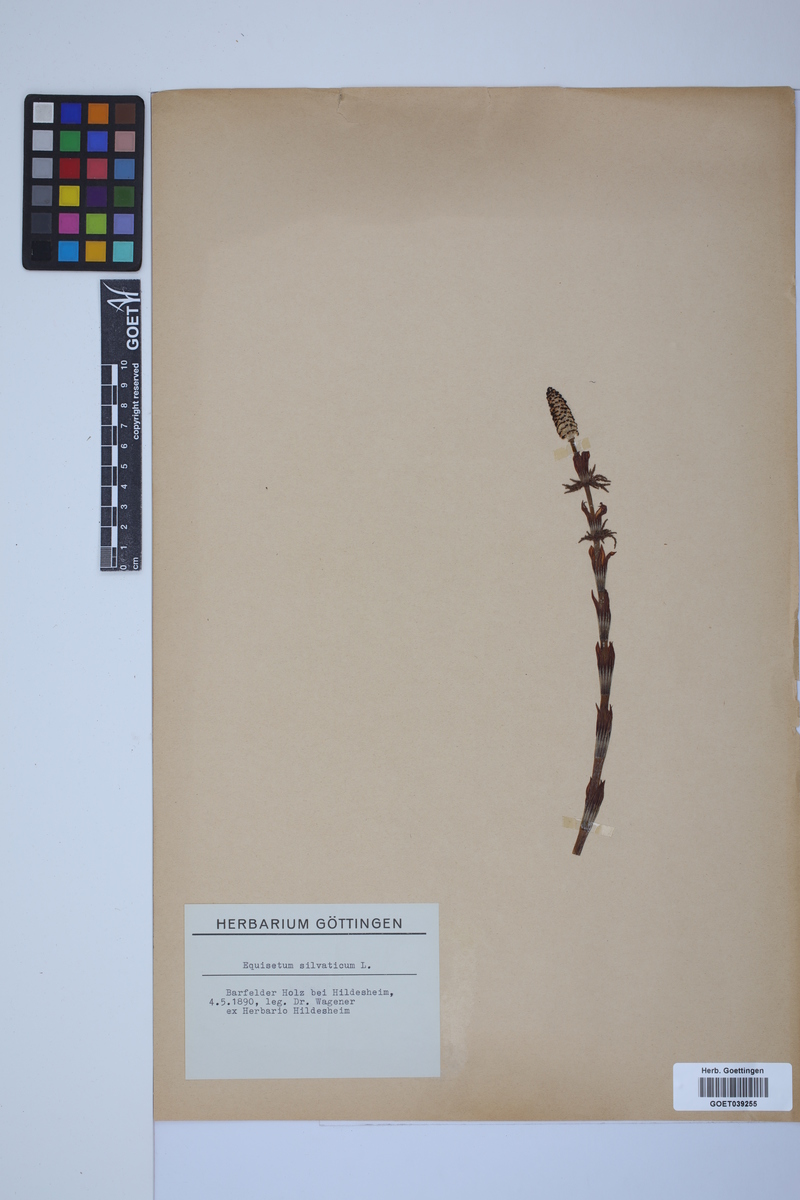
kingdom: Plantae
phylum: Tracheophyta
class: Polypodiopsida
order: Equisetales
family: Equisetaceae
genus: Equisetum
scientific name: Equisetum sylvaticum
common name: Wood horsetail
